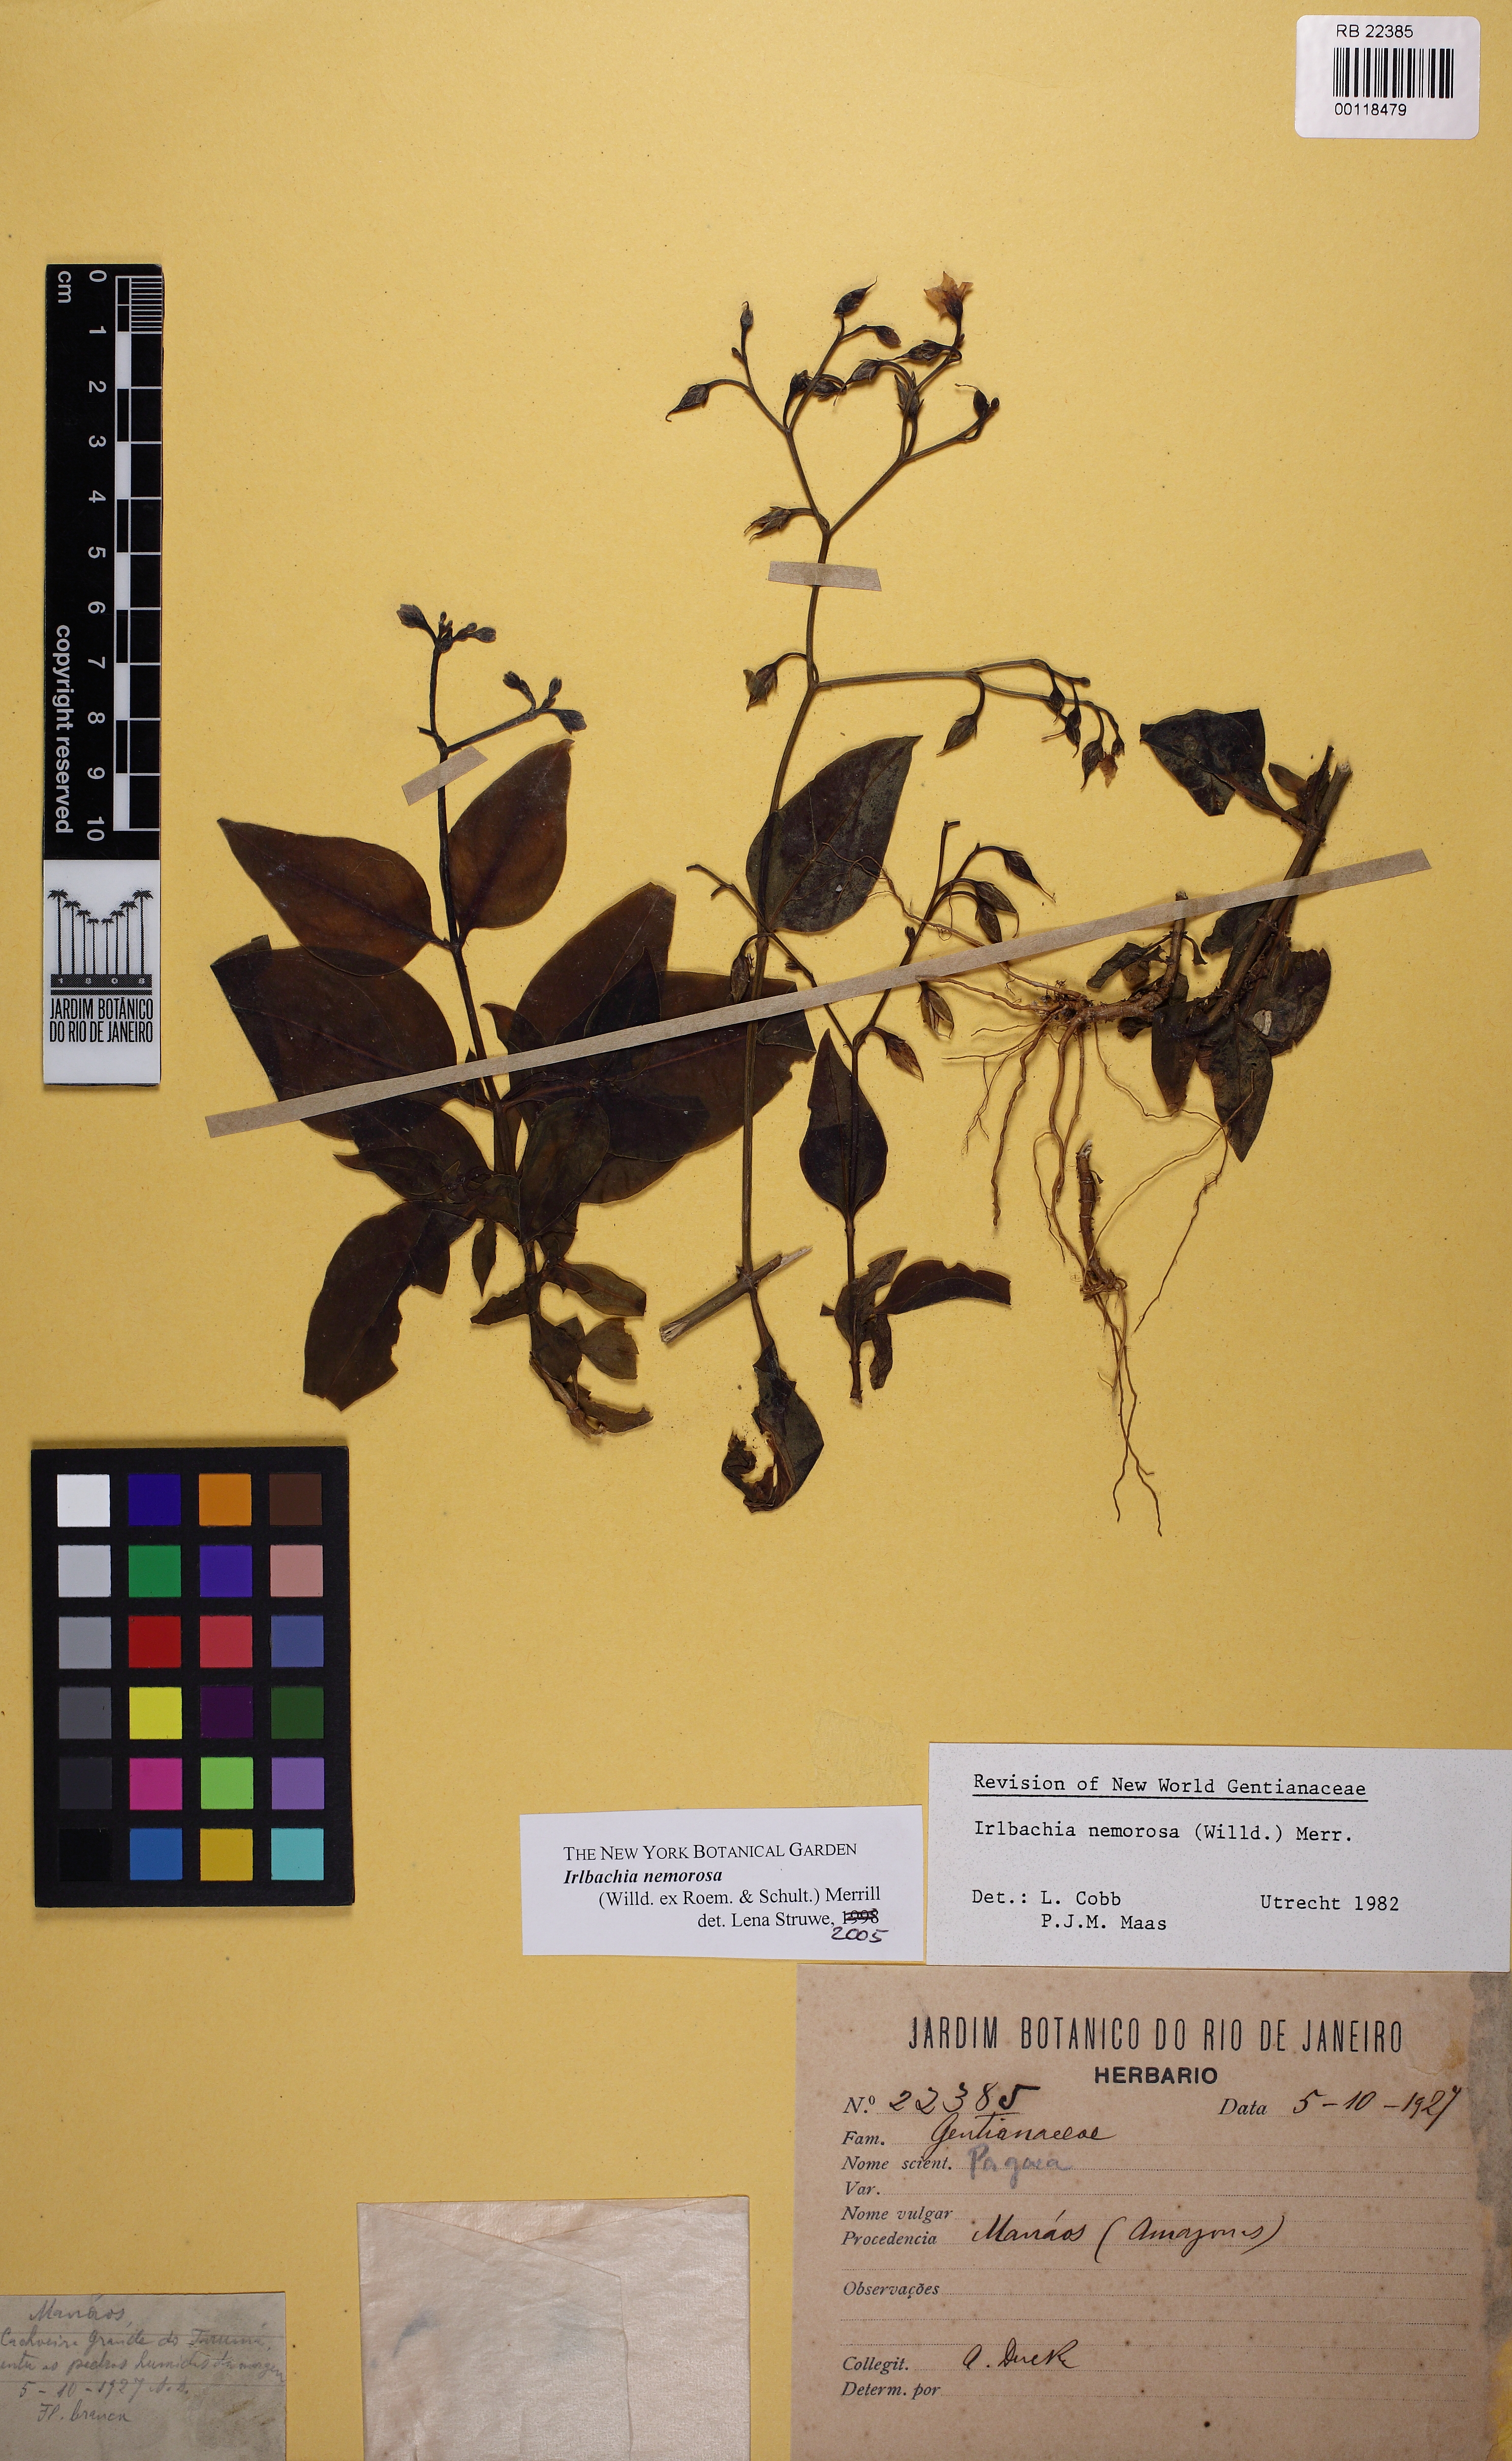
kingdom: Plantae
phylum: Tracheophyta
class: Magnoliopsida
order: Gentianales
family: Gentianaceae
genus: Irlbachia
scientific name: Irlbachia nemorosa
